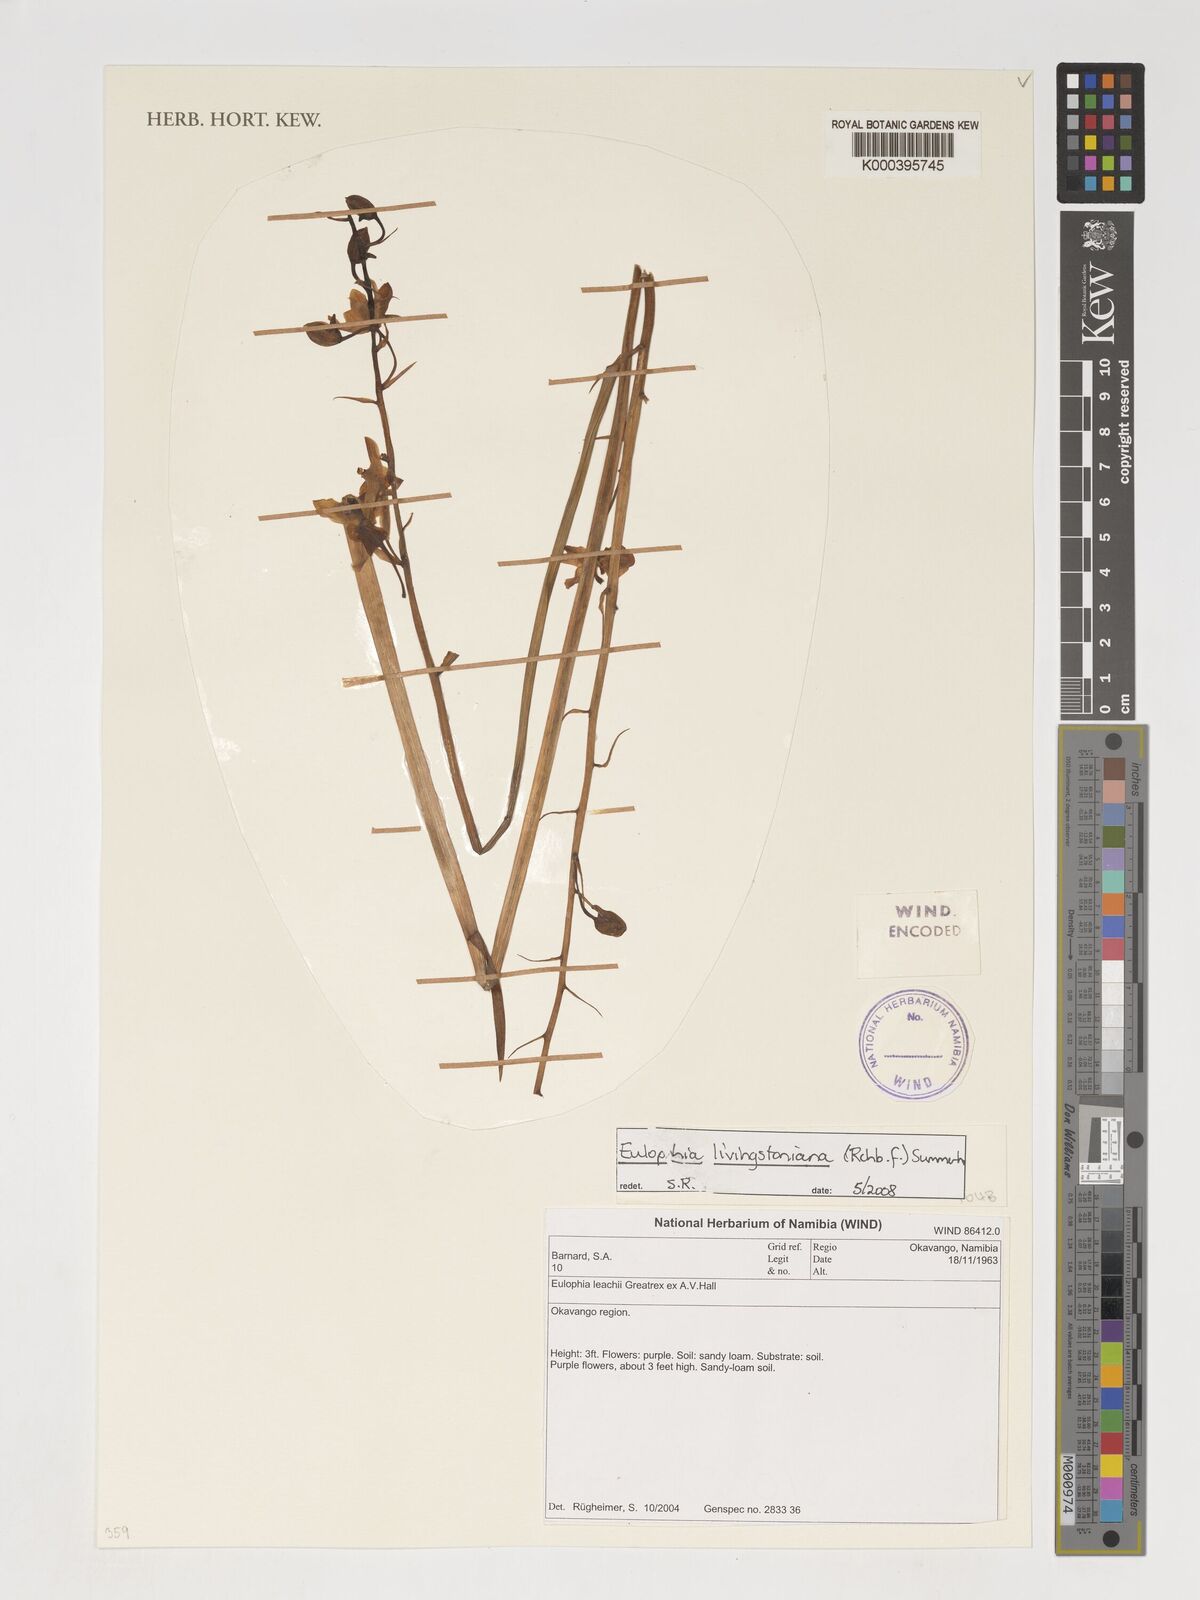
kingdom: Plantae
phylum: Tracheophyta
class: Liliopsida
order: Asparagales
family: Orchidaceae
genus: Eulophia
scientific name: Eulophia livingstoneana
